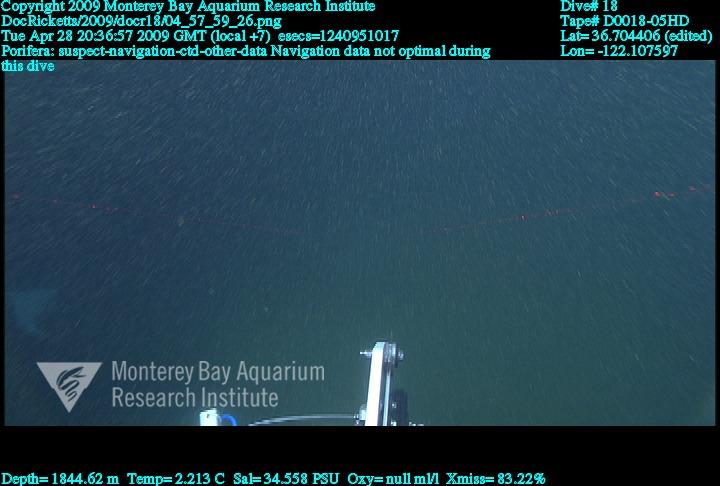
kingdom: Animalia
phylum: Porifera
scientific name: Porifera
